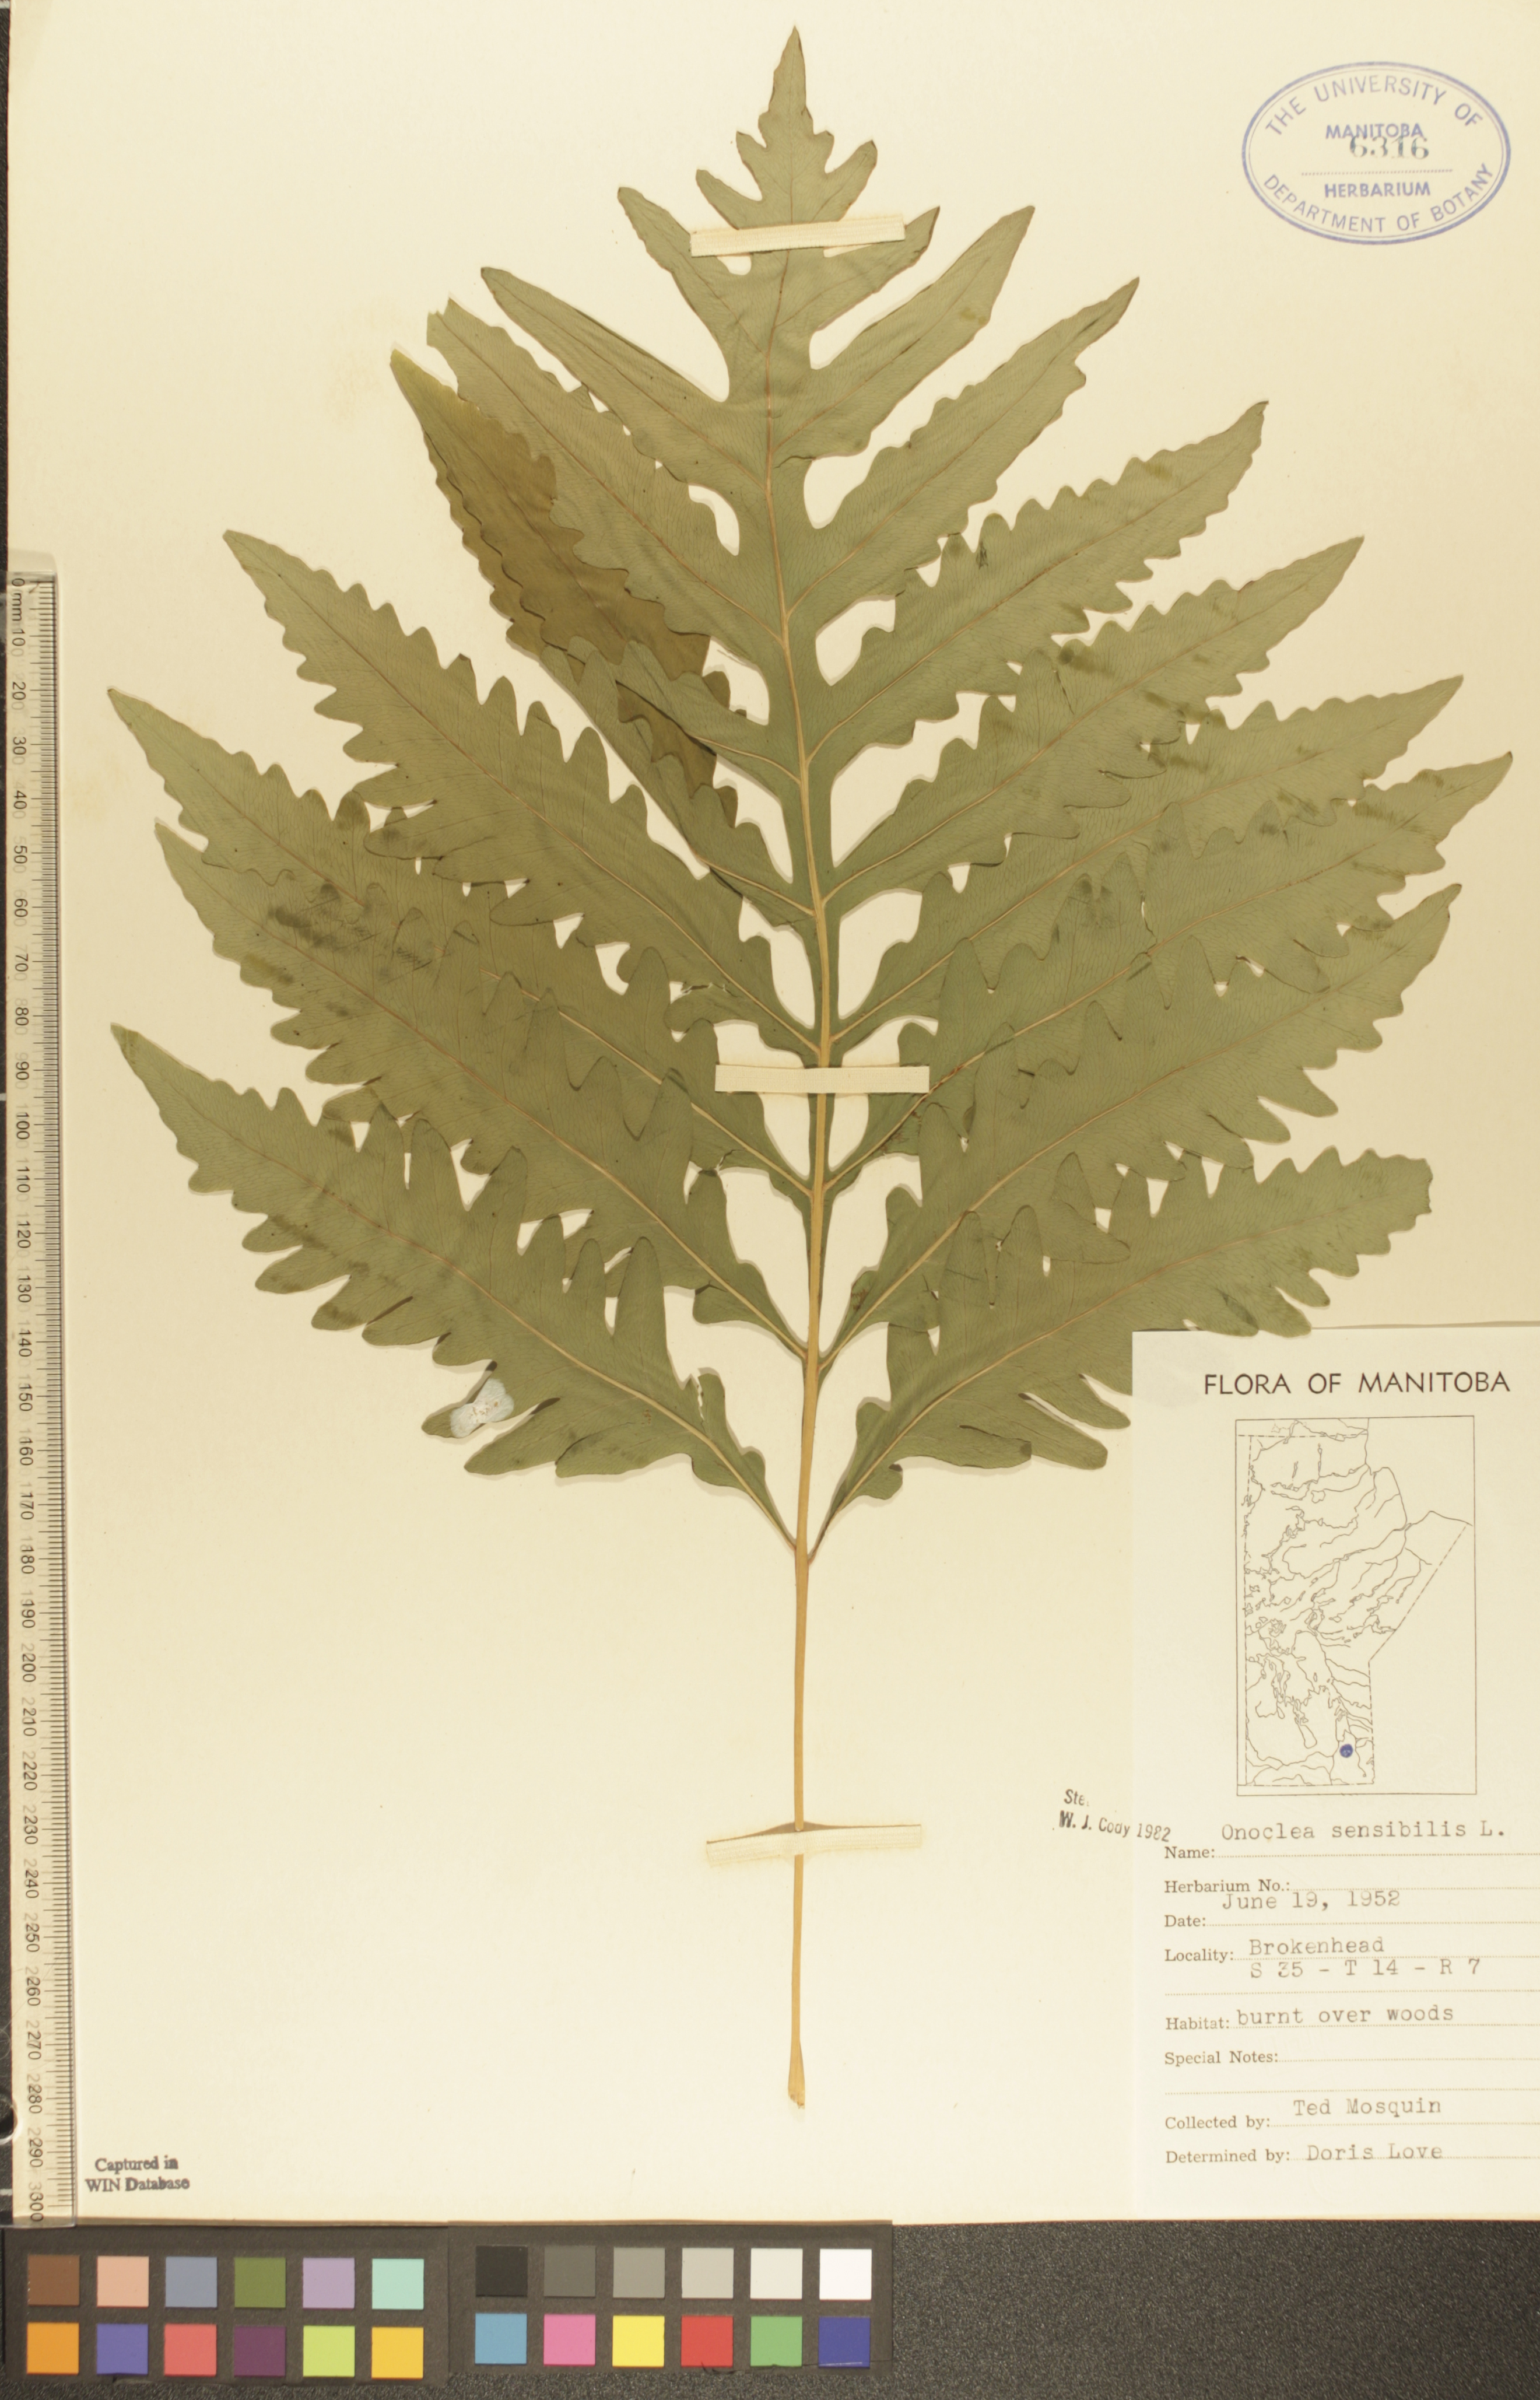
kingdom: Plantae
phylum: Tracheophyta
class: Polypodiopsida
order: Polypodiales
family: Onocleaceae
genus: Onoclea
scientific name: Onoclea sensibilis
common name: Sensitive fern
